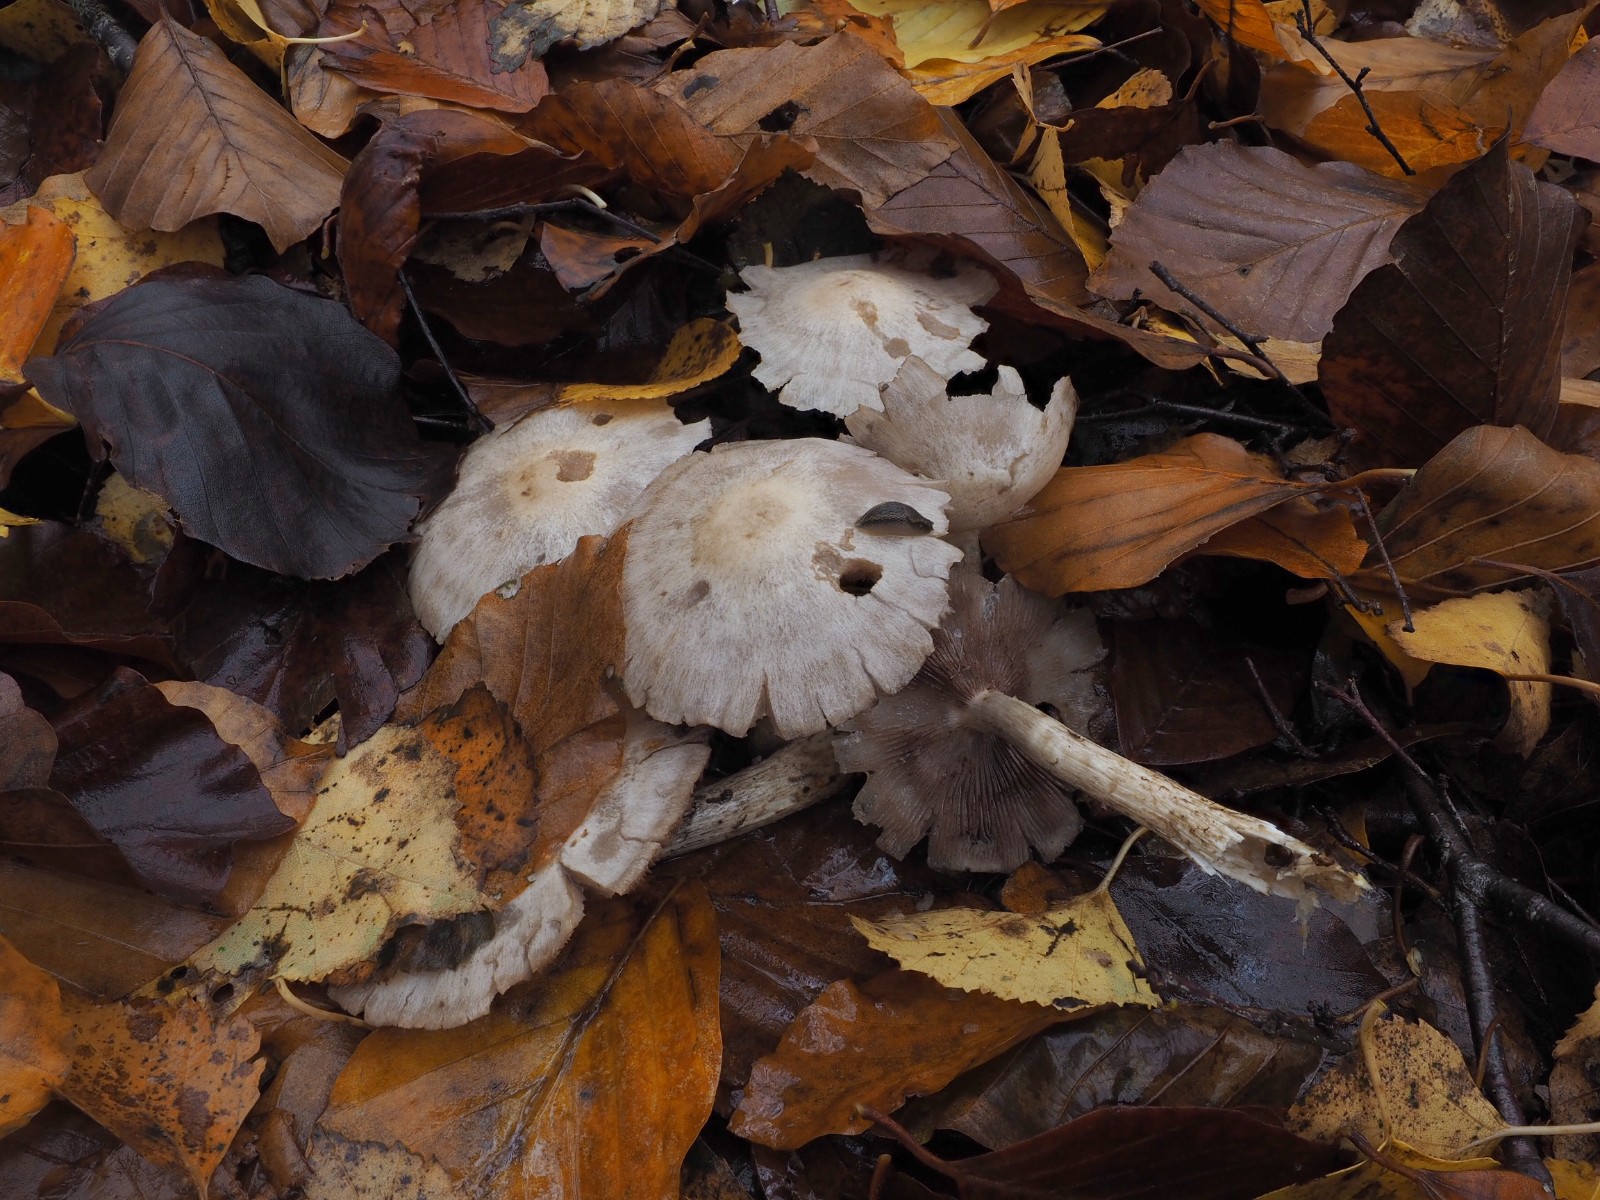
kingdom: Fungi
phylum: Basidiomycota
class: Agaricomycetes
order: Agaricales
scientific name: Agaricales
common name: champignonordenen
